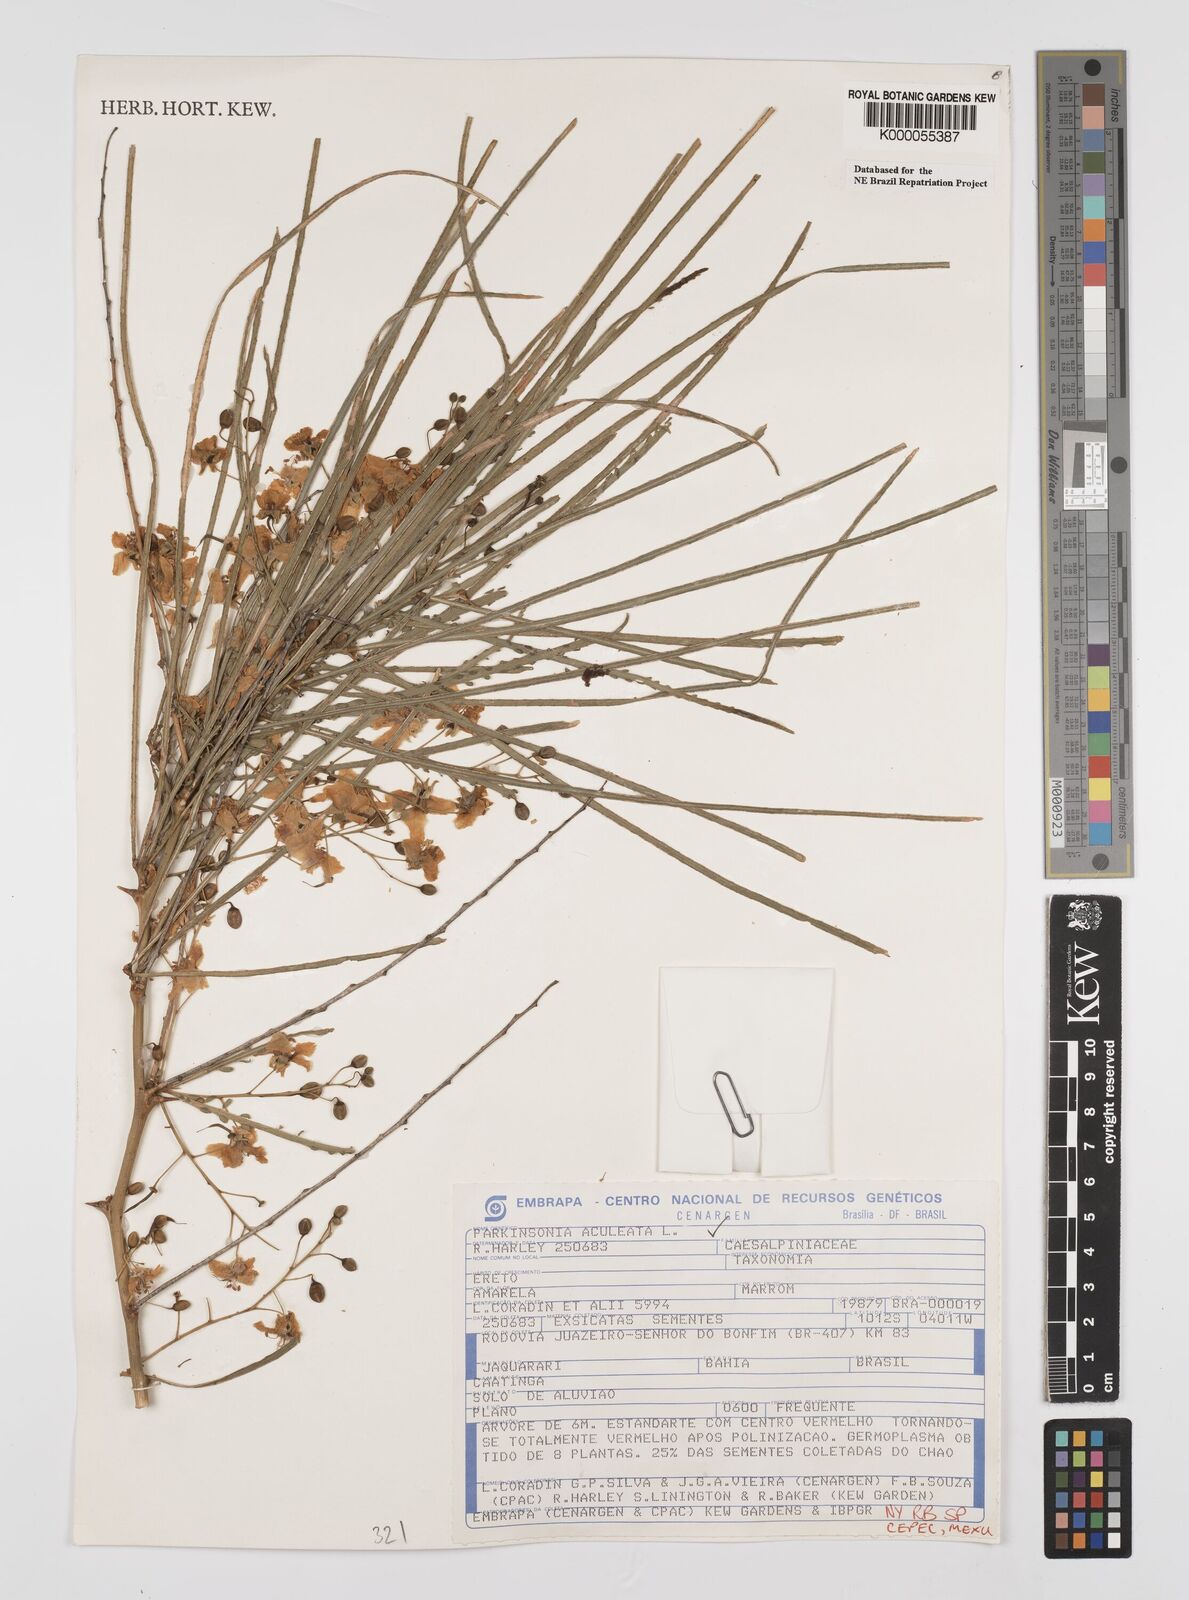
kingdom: Plantae
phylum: Tracheophyta
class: Magnoliopsida
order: Fabales
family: Fabaceae
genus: Parkinsonia
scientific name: Parkinsonia aculeata
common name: Jerusalem thorn
